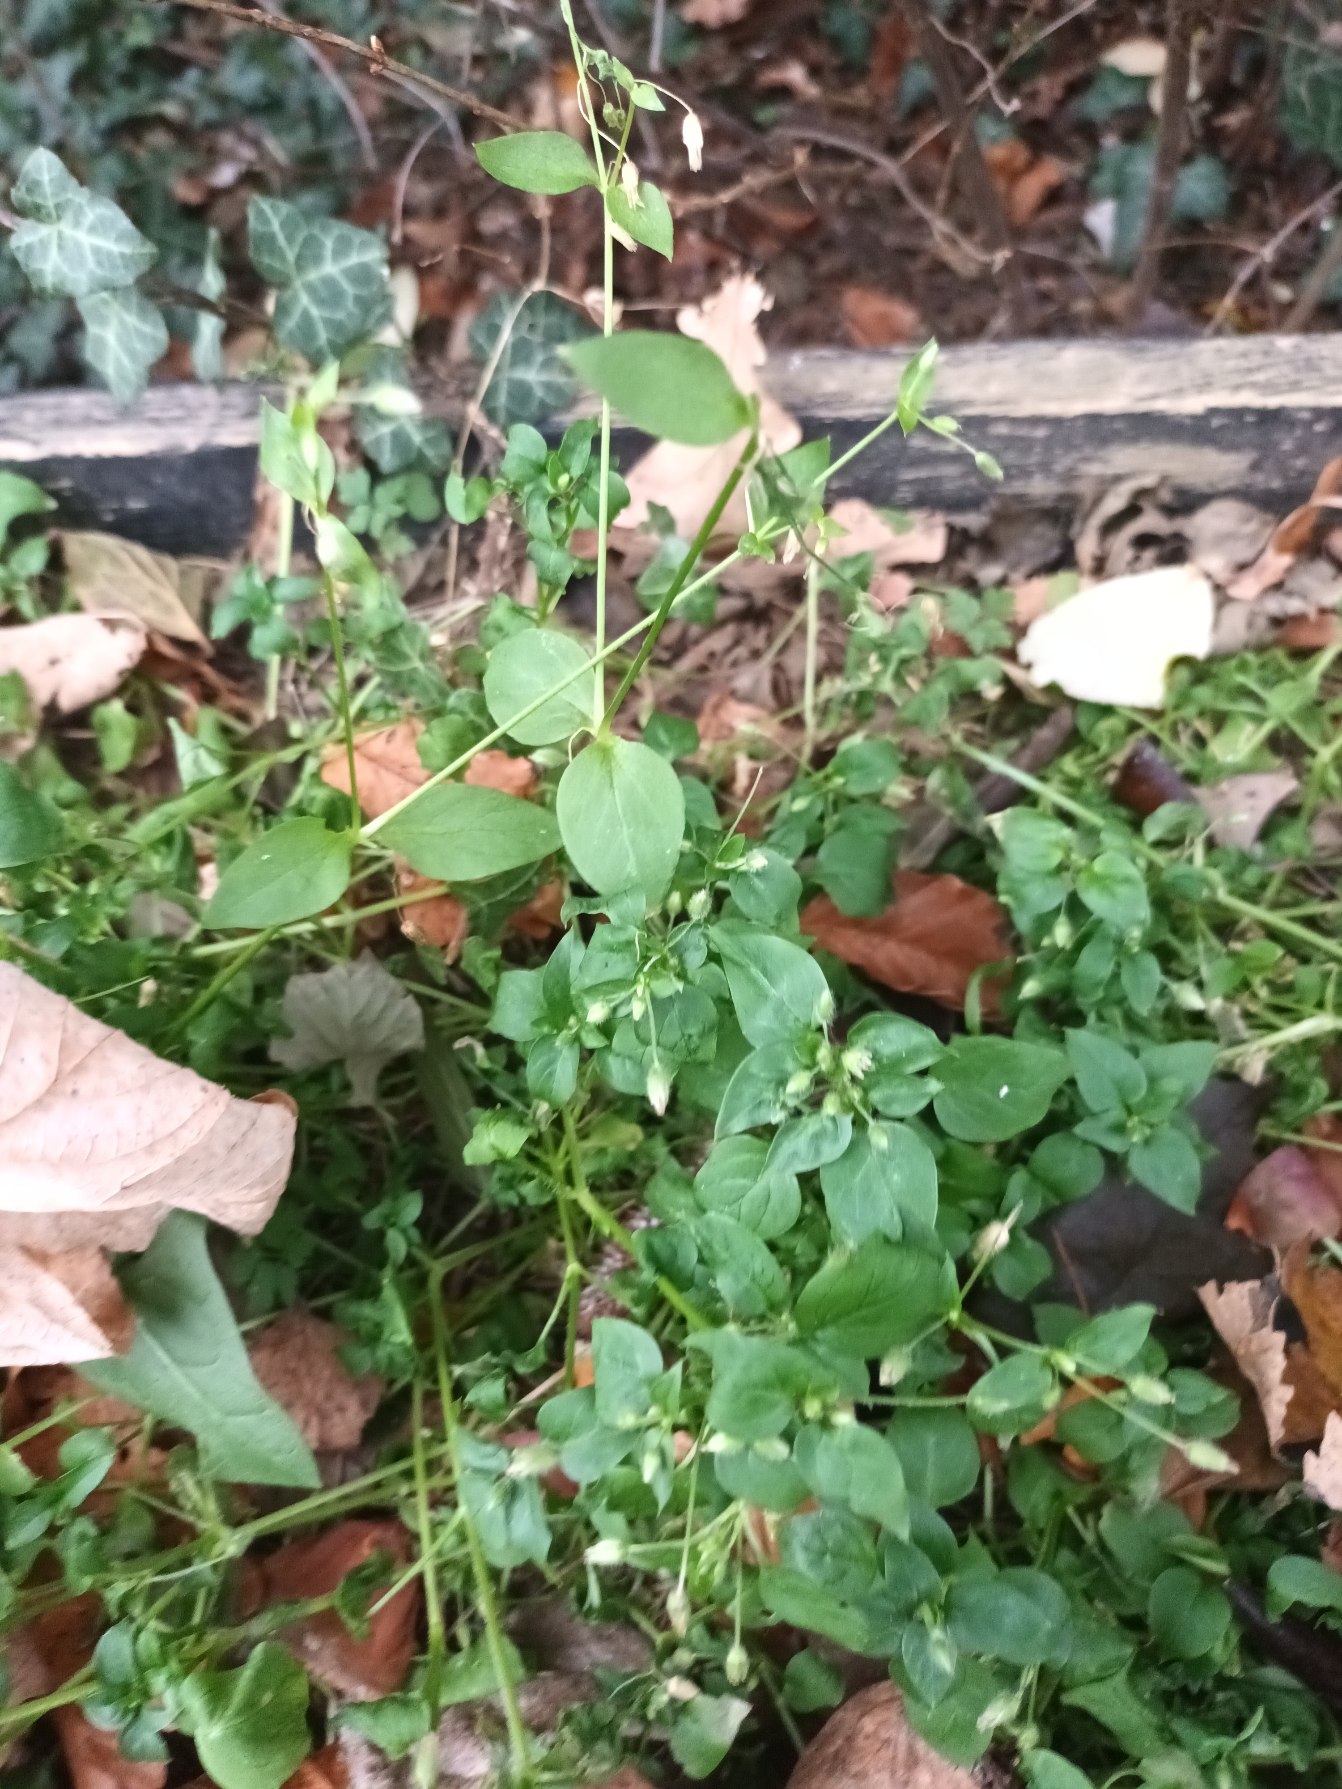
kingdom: Plantae
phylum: Tracheophyta
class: Magnoliopsida
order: Caryophyllales
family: Caryophyllaceae
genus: Stellaria
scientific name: Stellaria media
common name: Almindelig fuglegræs
